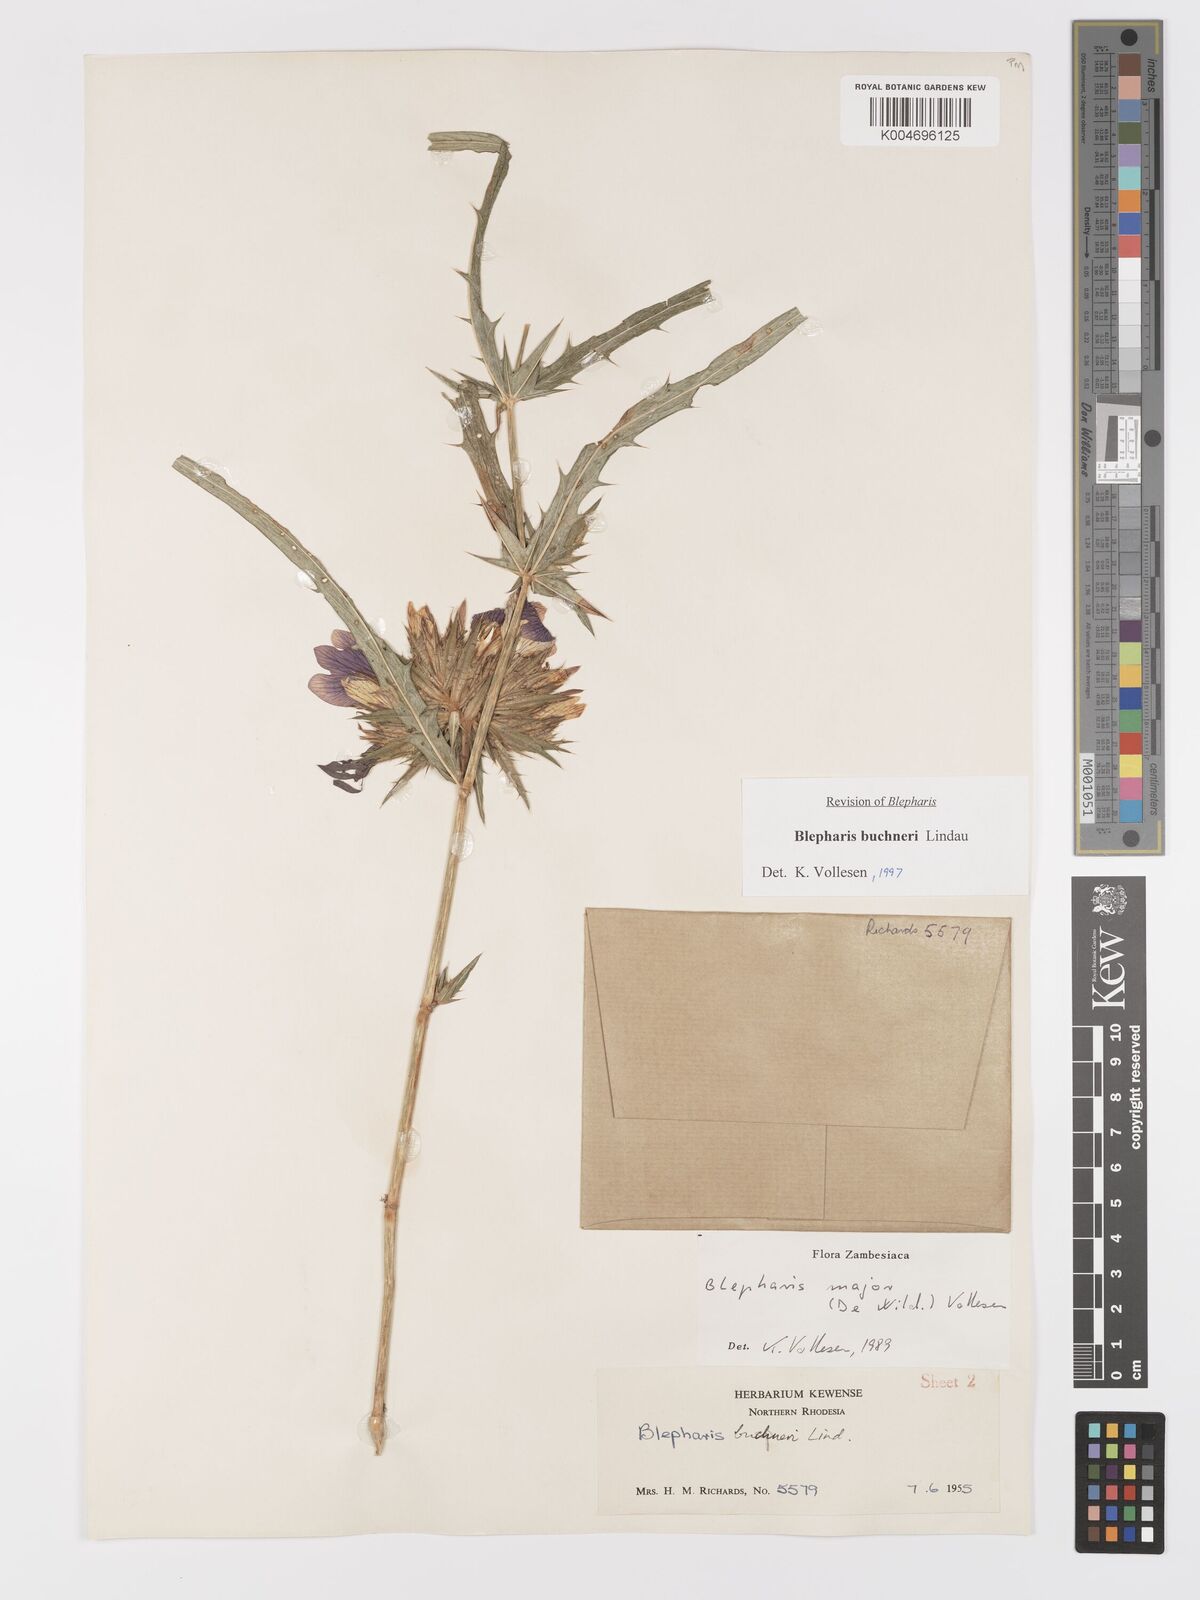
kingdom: Plantae
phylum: Tracheophyta
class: Magnoliopsida
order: Lamiales
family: Acanthaceae
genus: Blepharis
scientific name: Blepharis buchneri
